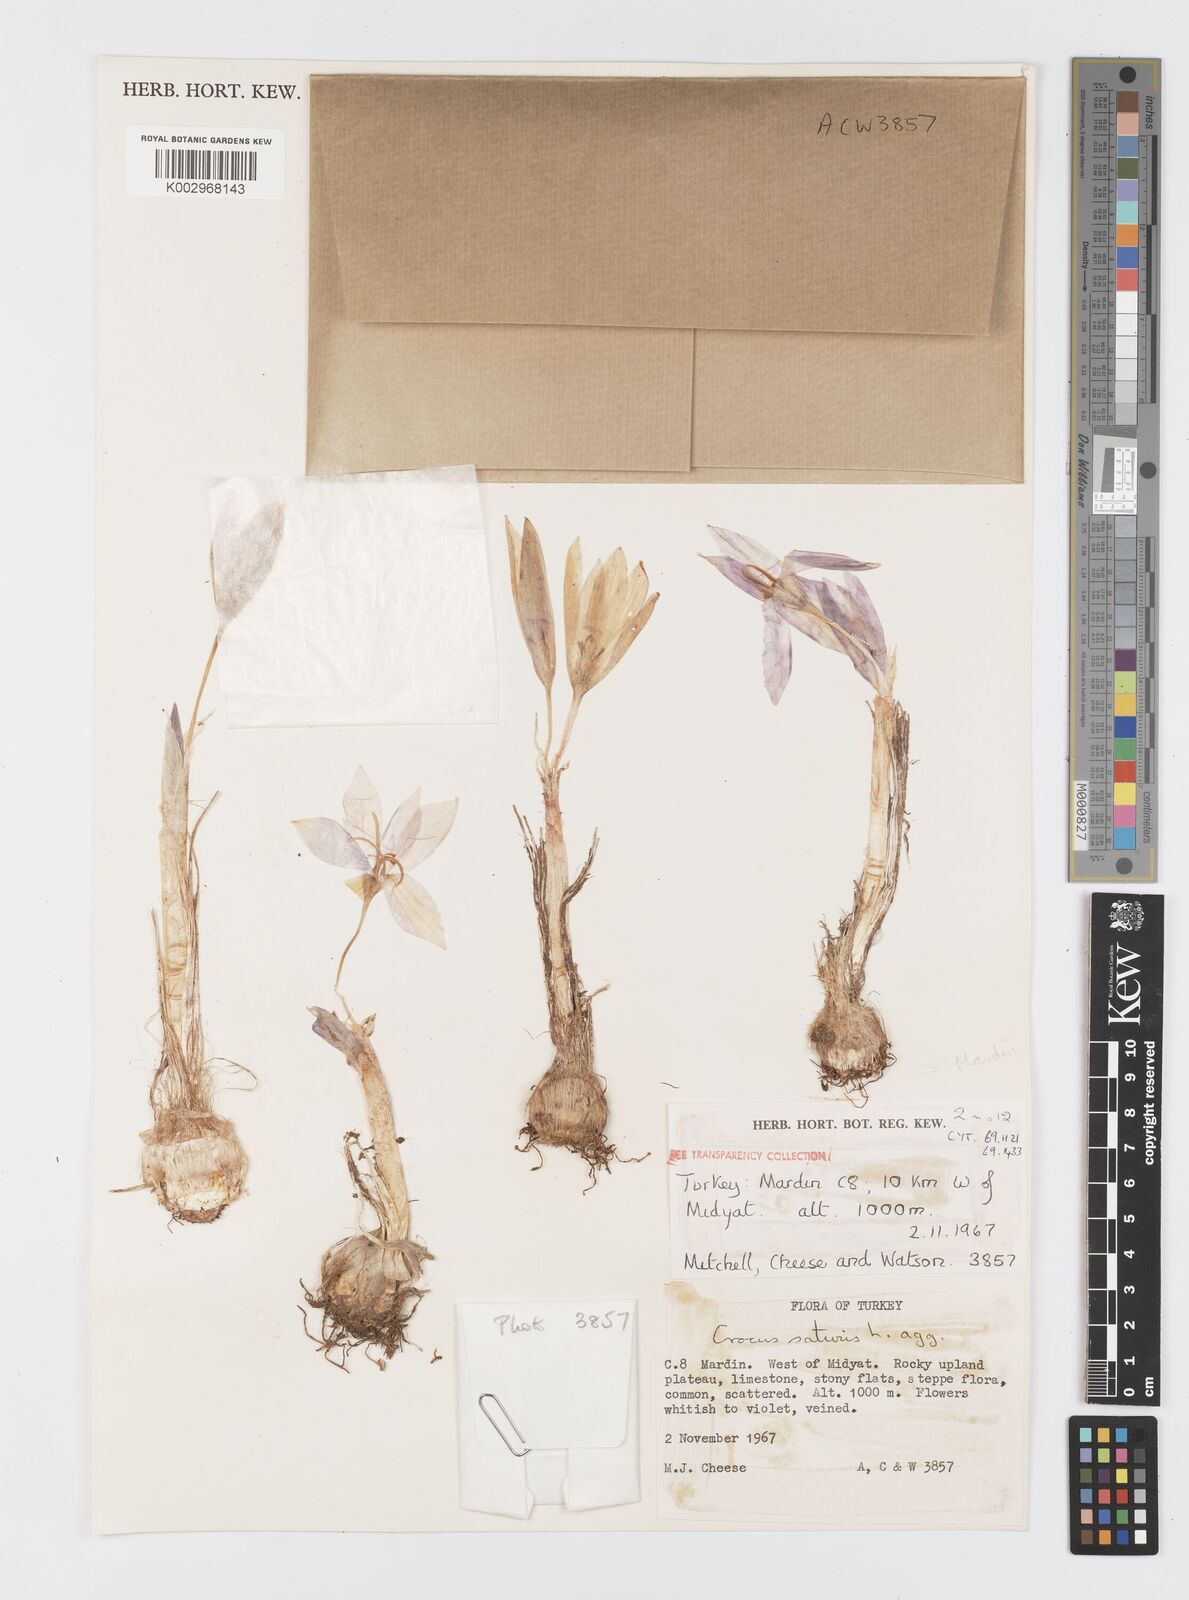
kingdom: Plantae
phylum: Tracheophyta
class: Liliopsida
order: Asparagales
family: Iridaceae
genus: Crocus
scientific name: Crocus turcicus
